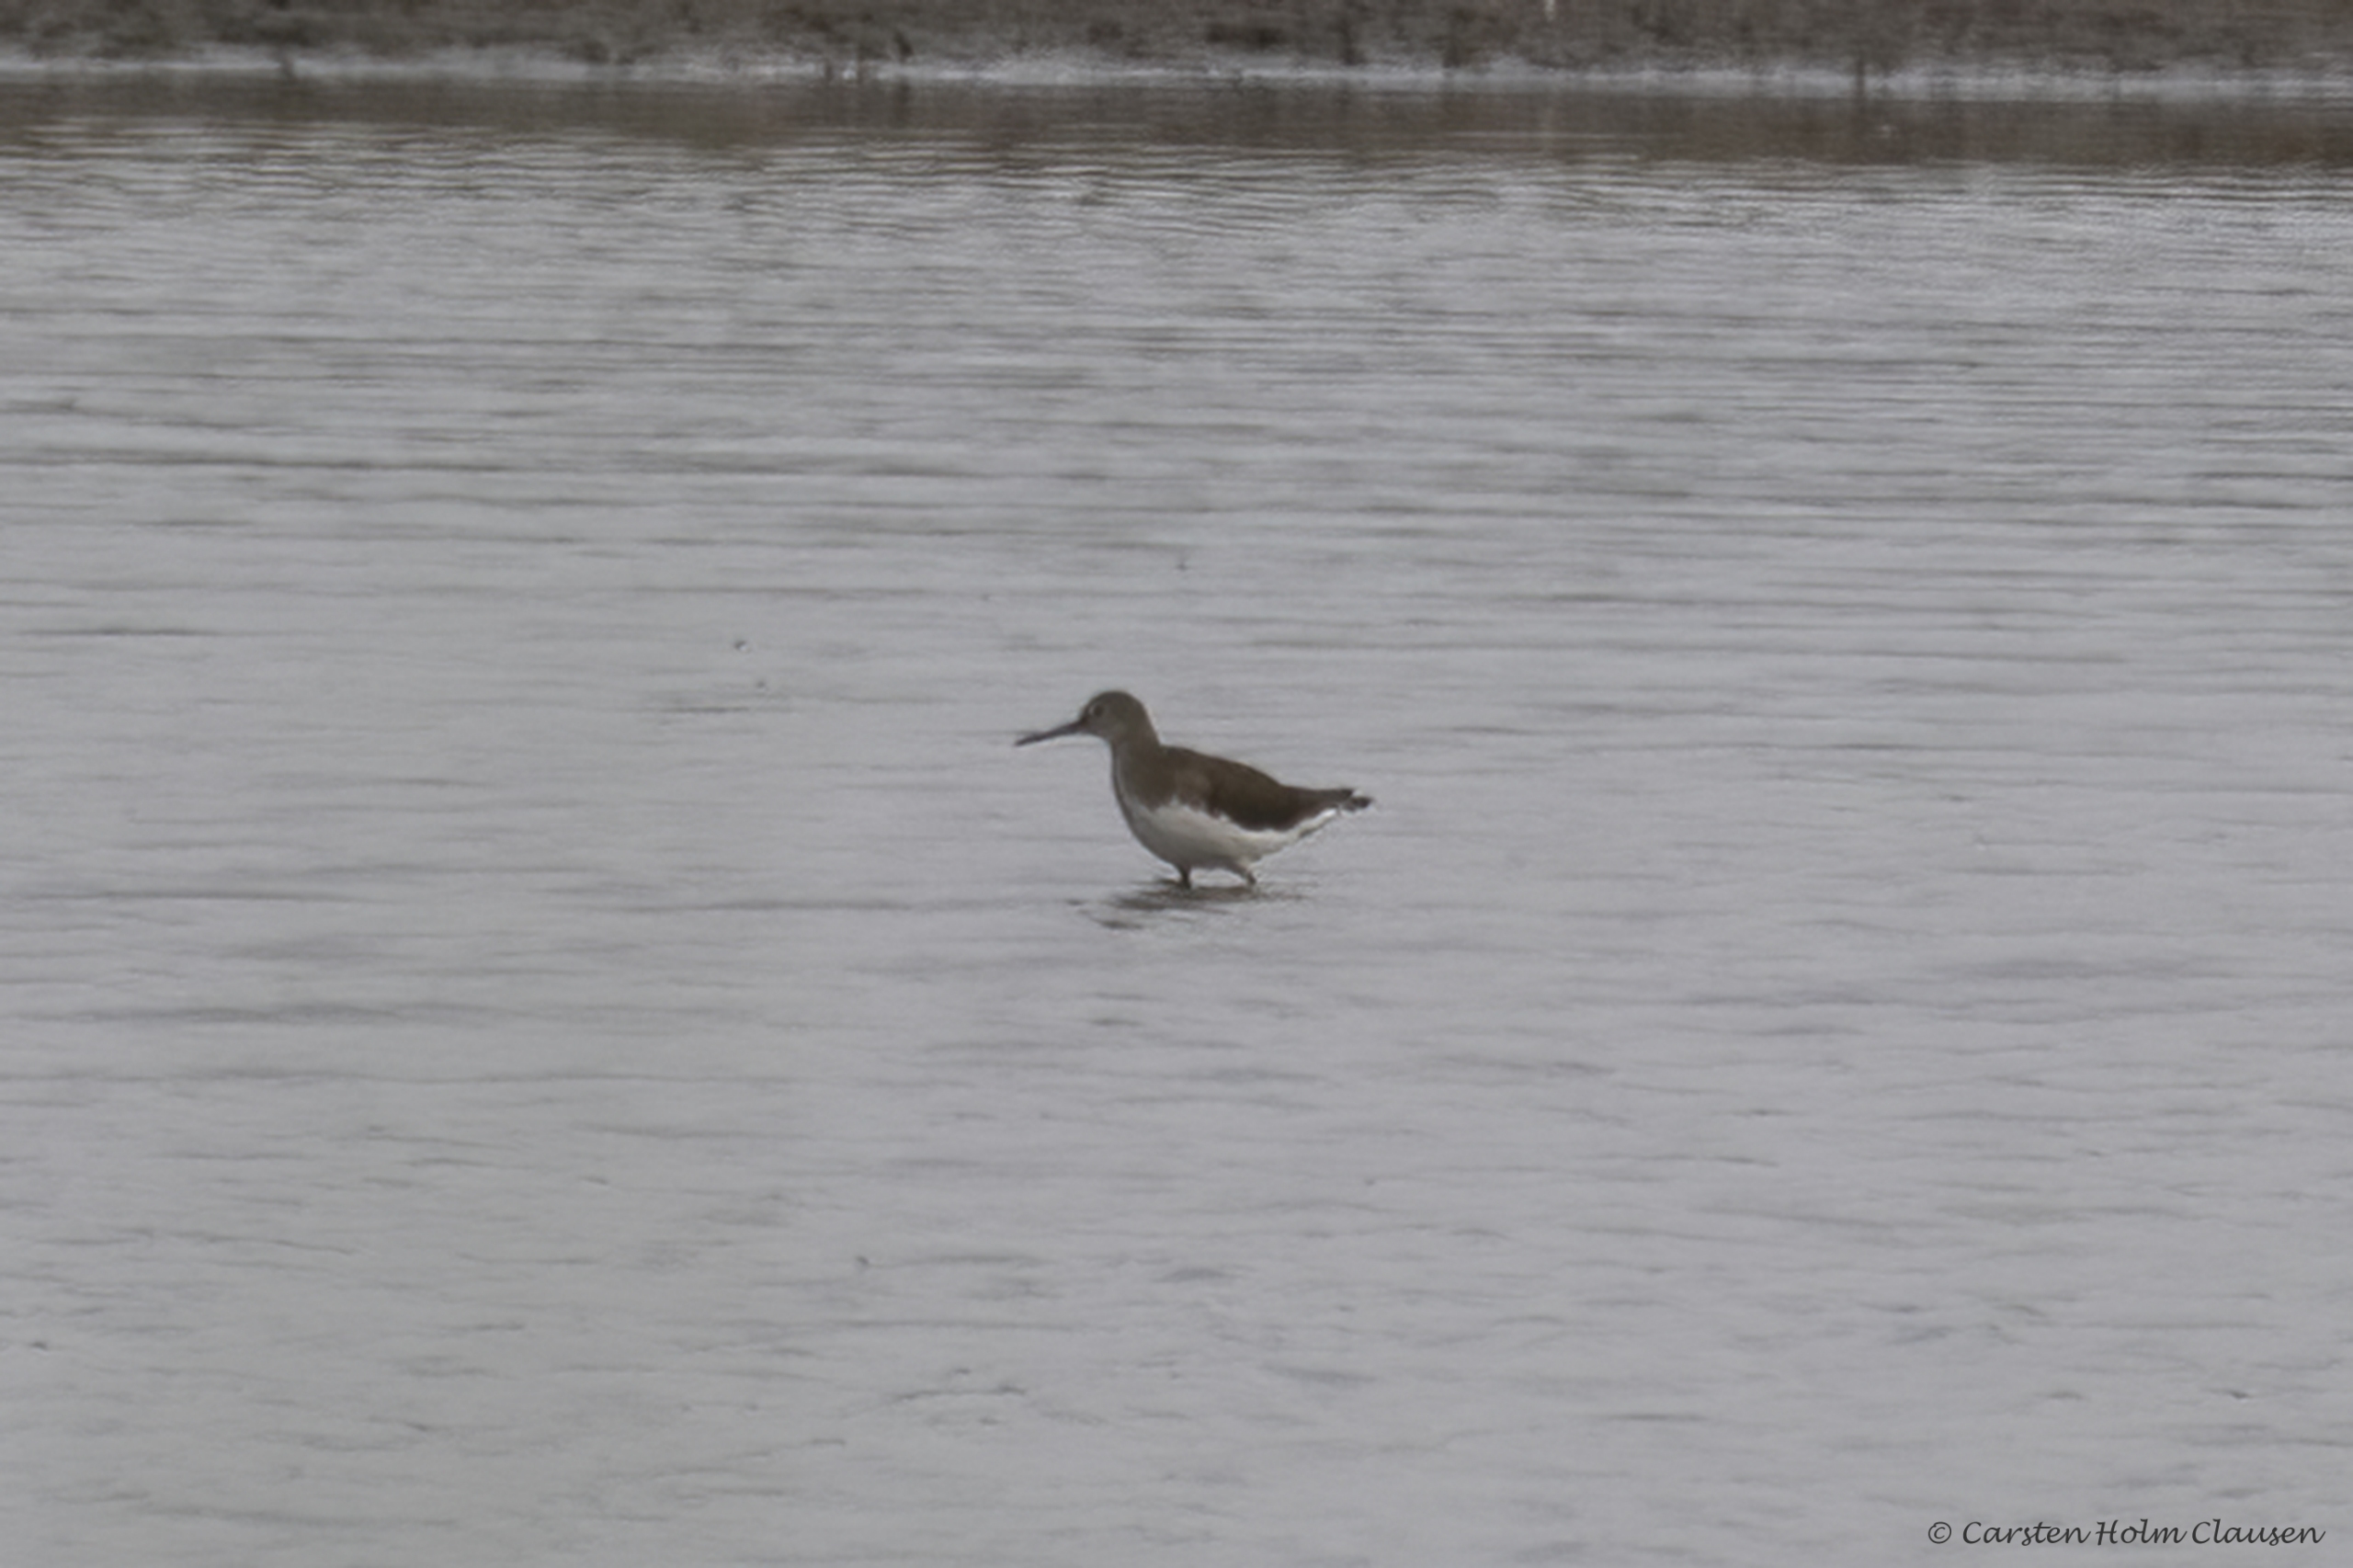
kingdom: Animalia
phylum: Chordata
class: Aves
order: Charadriiformes
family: Scolopacidae
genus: Tringa
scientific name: Tringa ochropus
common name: Svaleklire
